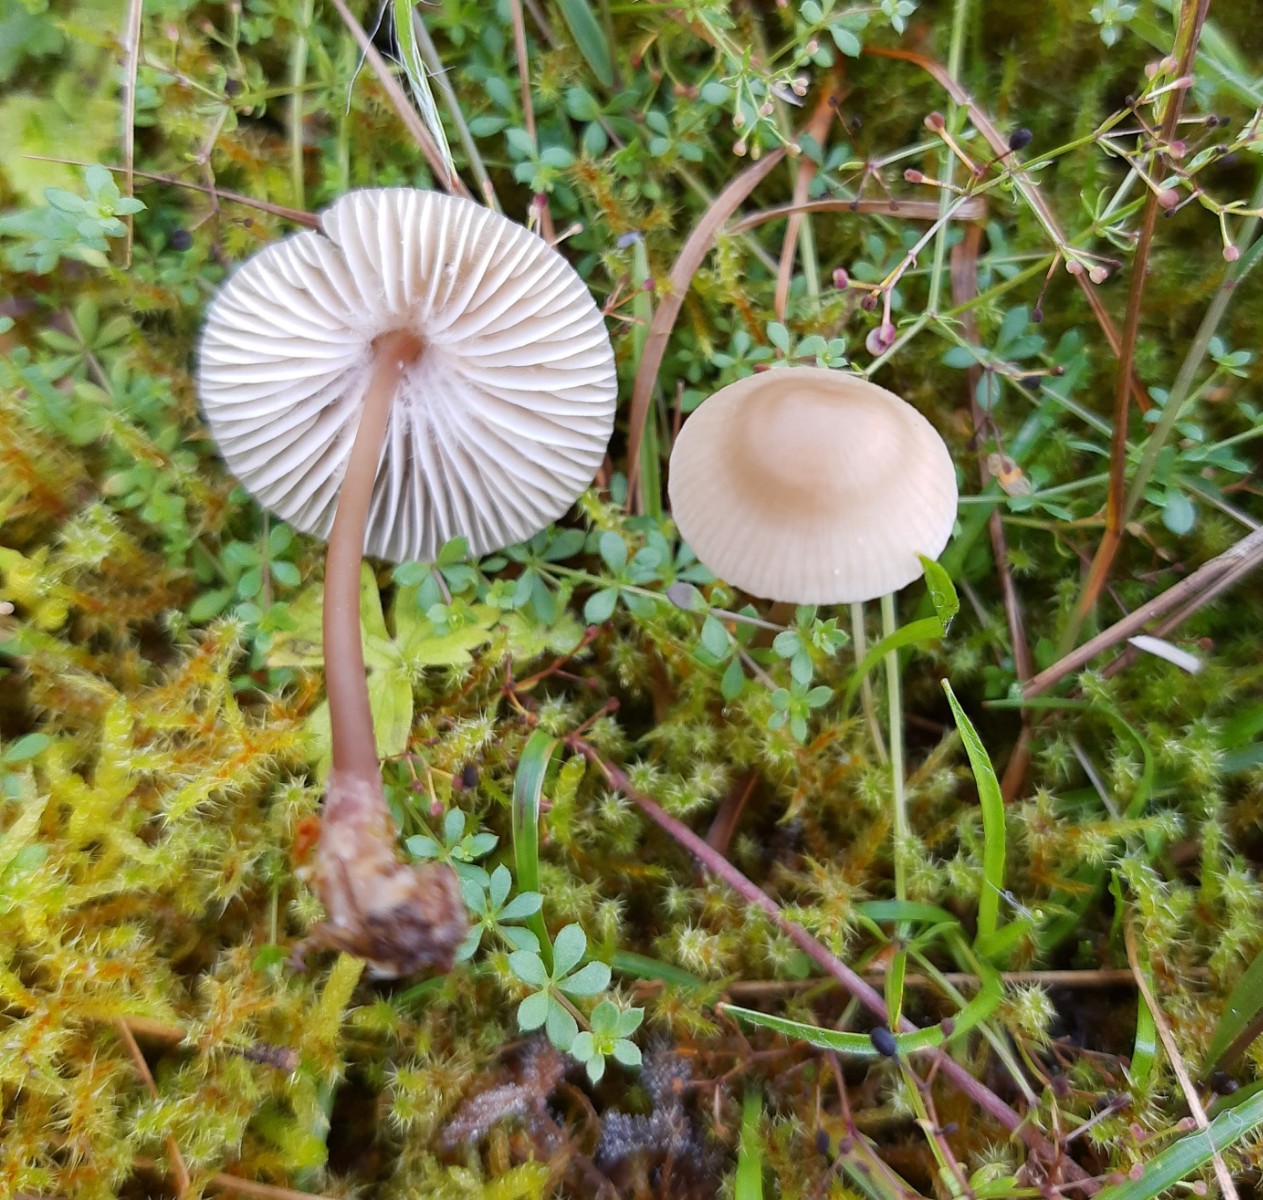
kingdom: Fungi
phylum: Basidiomycota
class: Agaricomycetes
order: Agaricales
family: Mycenaceae
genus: Mycena
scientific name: Mycena galericulata
